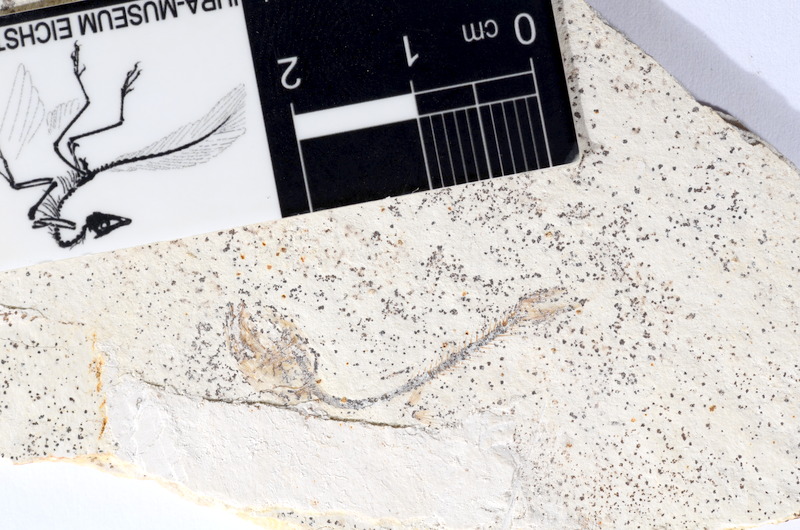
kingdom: Animalia
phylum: Chordata
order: Salmoniformes
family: Orthogonikleithridae
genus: Orthogonikleithrus
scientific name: Orthogonikleithrus hoelli
